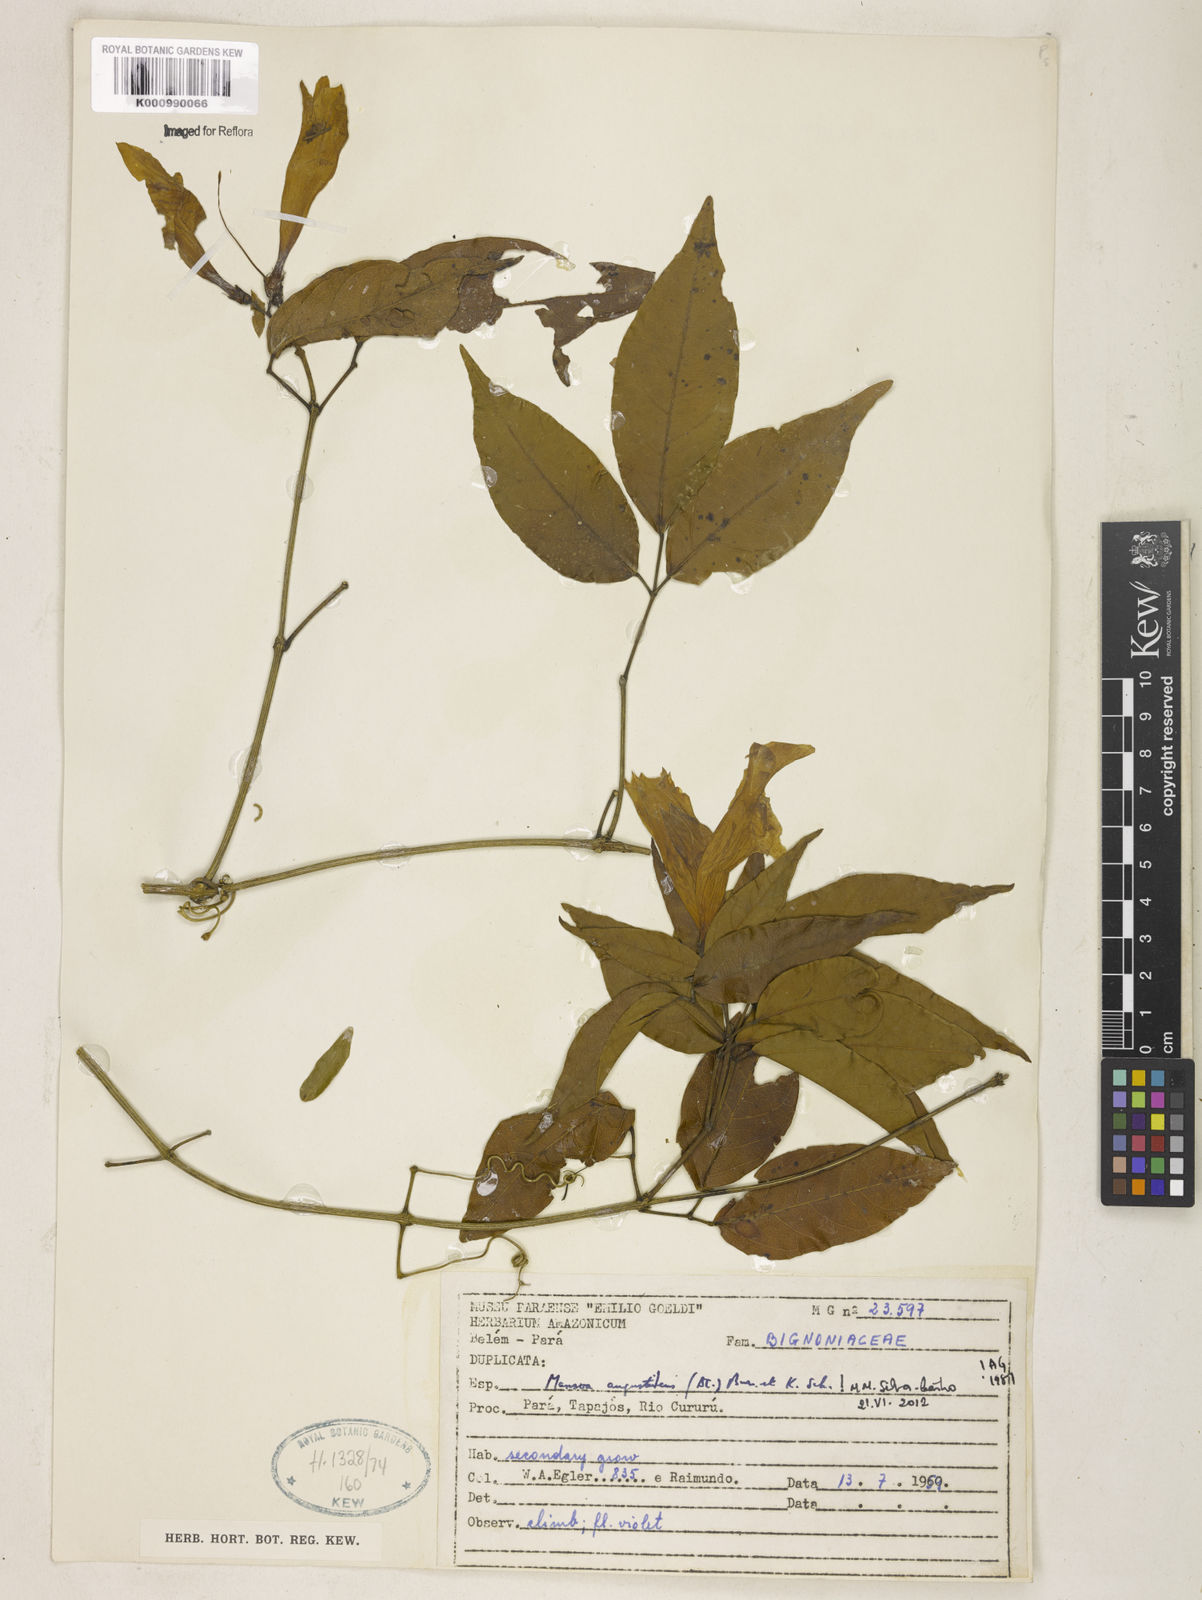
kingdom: Plantae
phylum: Tracheophyta
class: Magnoliopsida
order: Lamiales
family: Bignoniaceae
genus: Mansoa
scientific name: Mansoa angustidens
